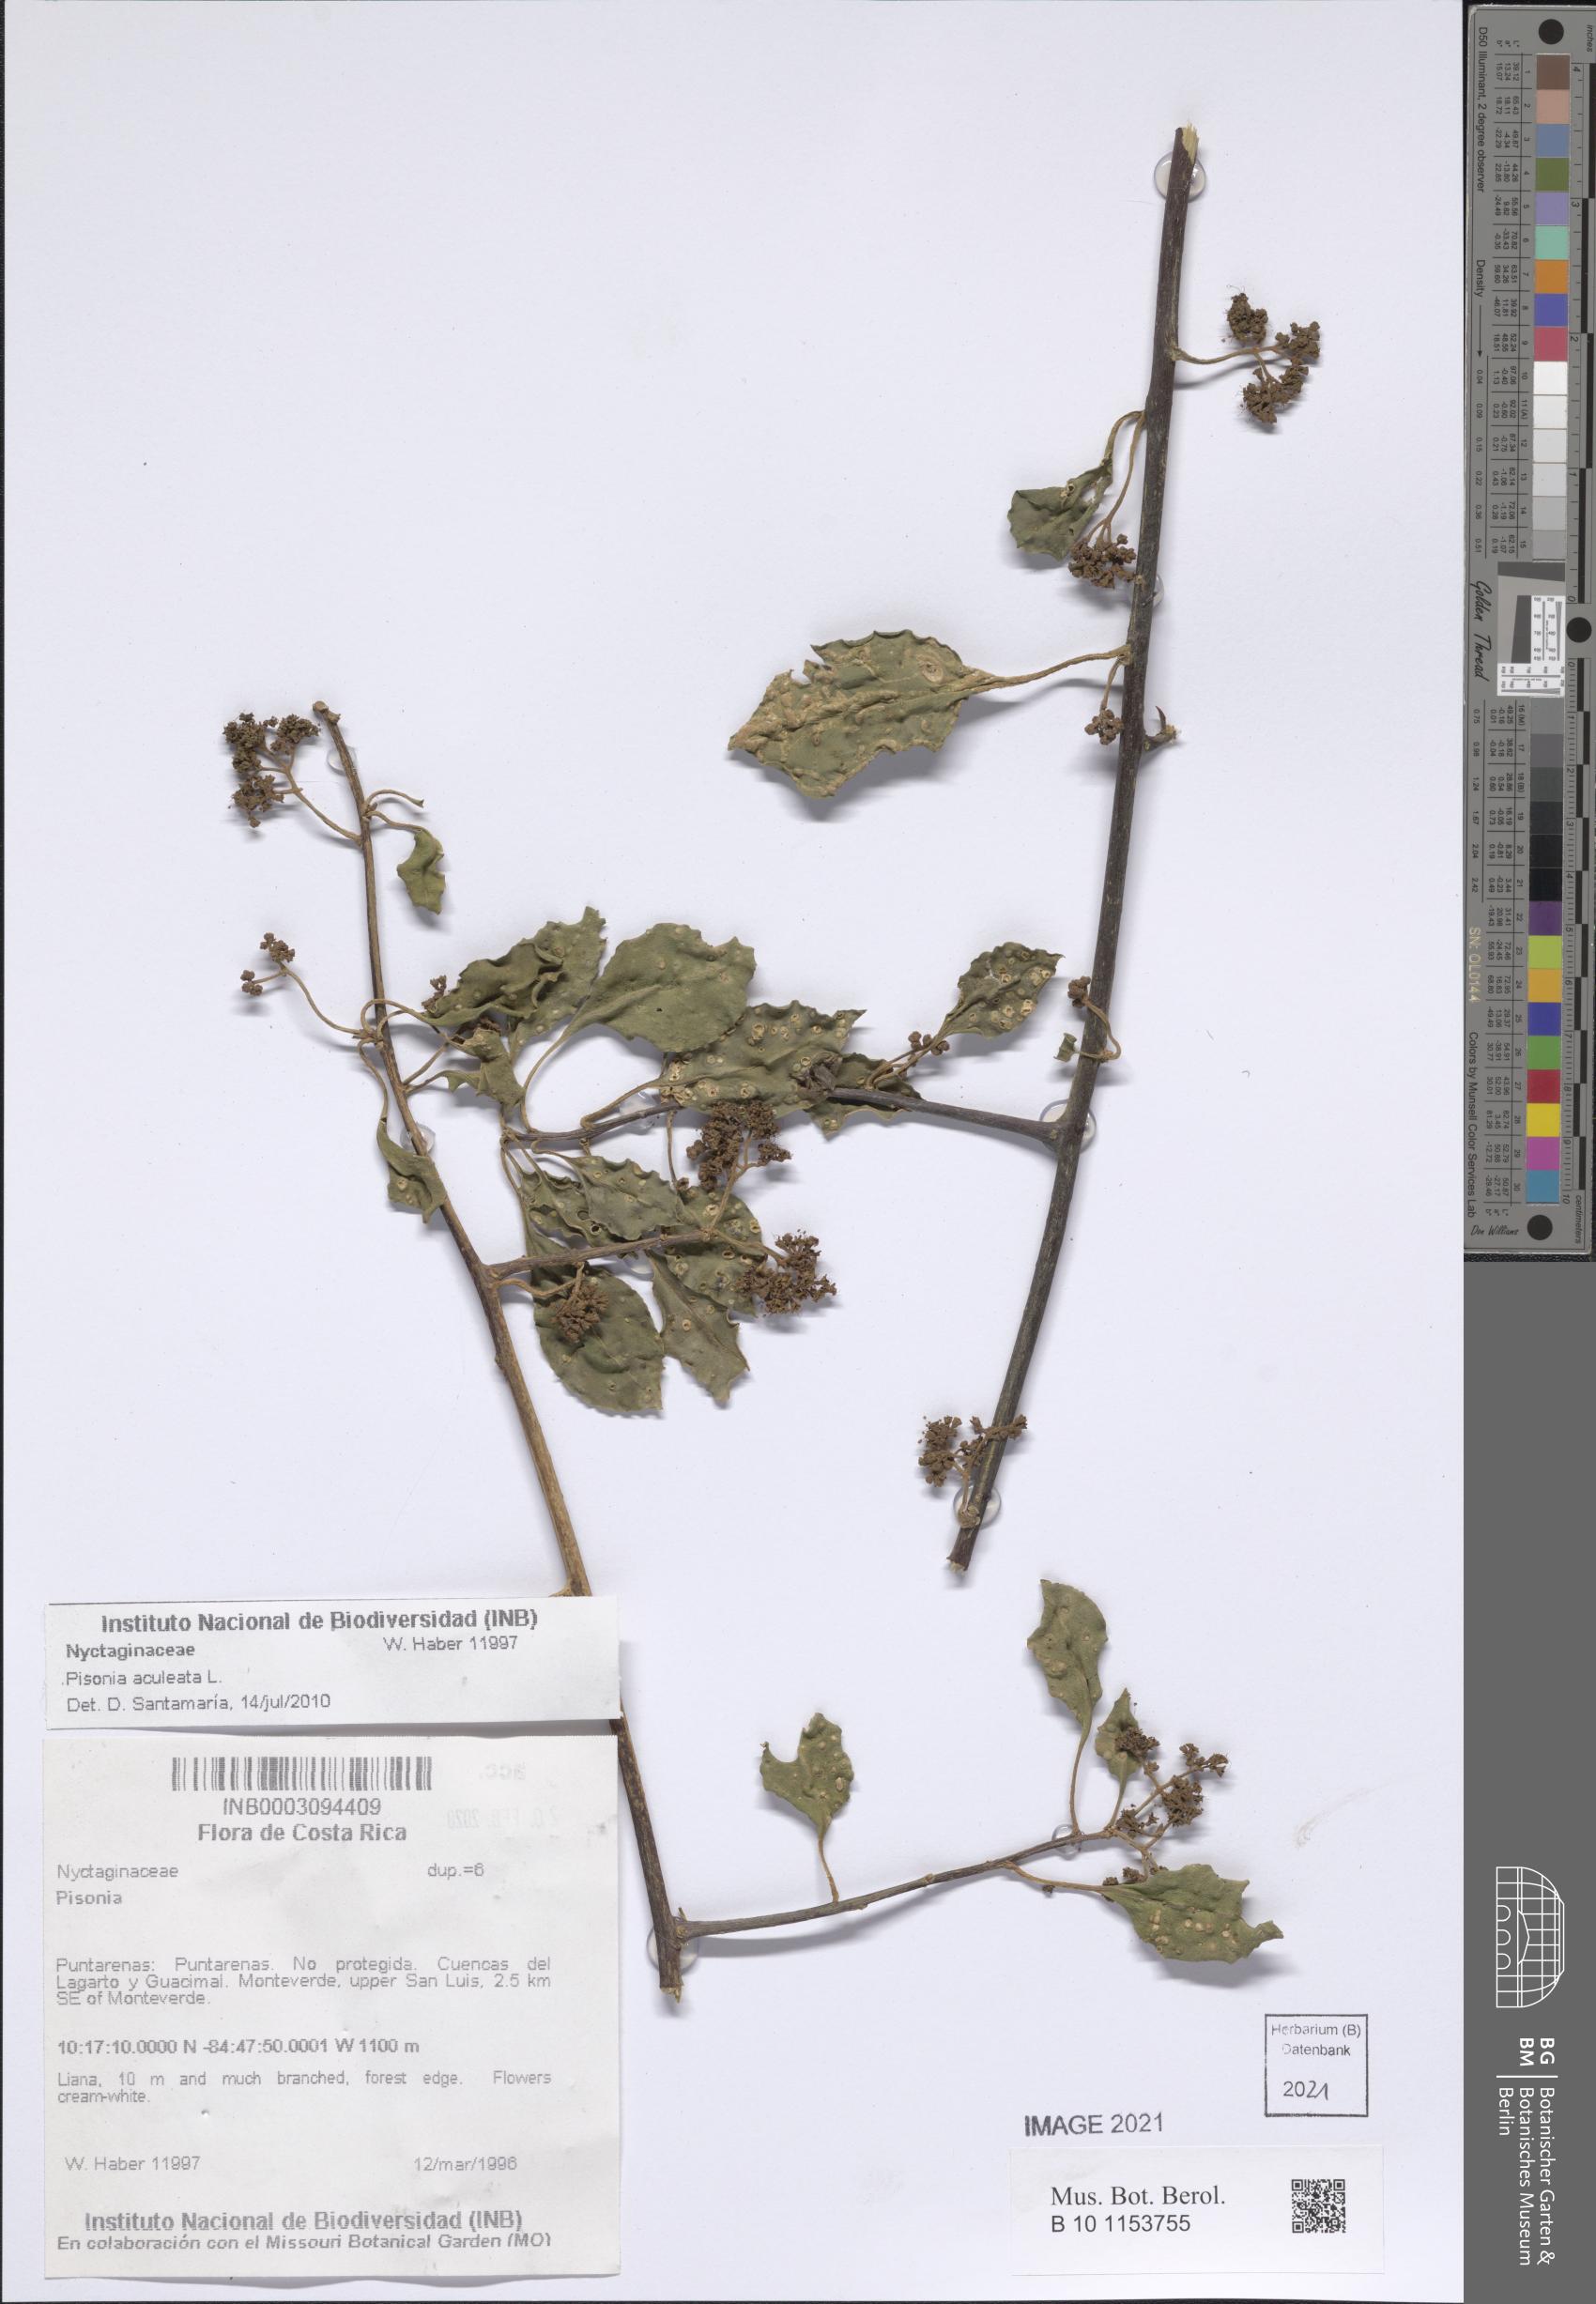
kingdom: Plantae
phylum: Tracheophyta
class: Magnoliopsida
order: Caryophyllales
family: Nyctaginaceae
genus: Pisonia
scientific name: Pisonia aculeata
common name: Cockspur vine
